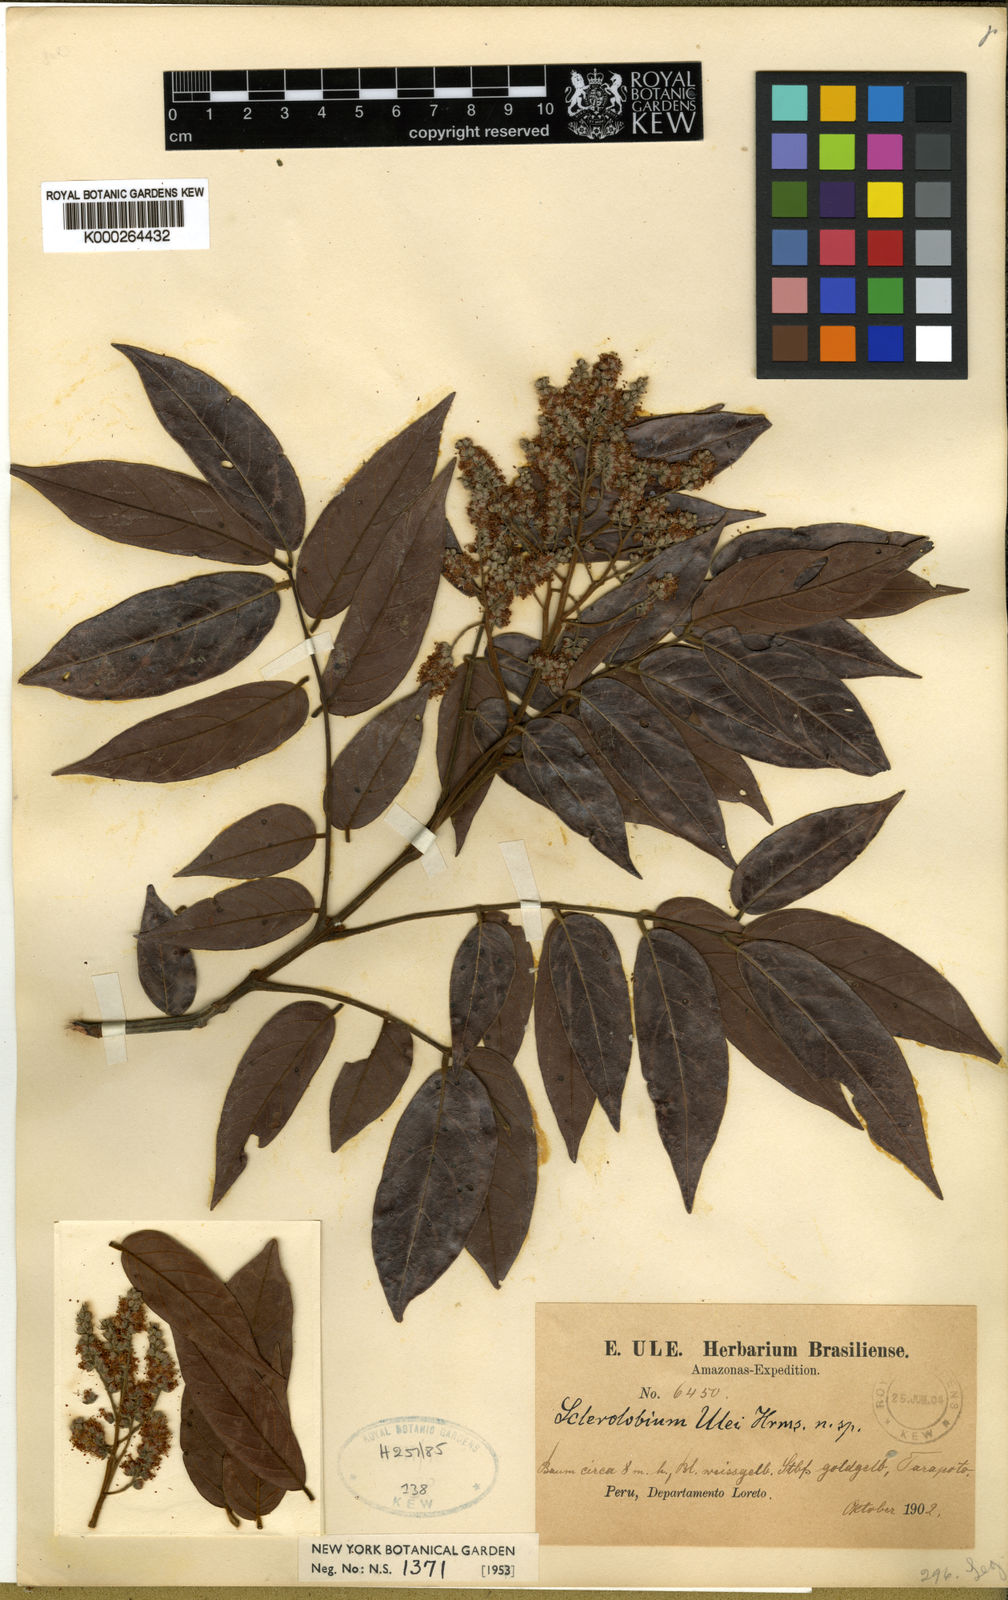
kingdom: Plantae
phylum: Tracheophyta
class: Magnoliopsida
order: Fabales
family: Fabaceae
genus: Tachigali
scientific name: Tachigali guianensis
